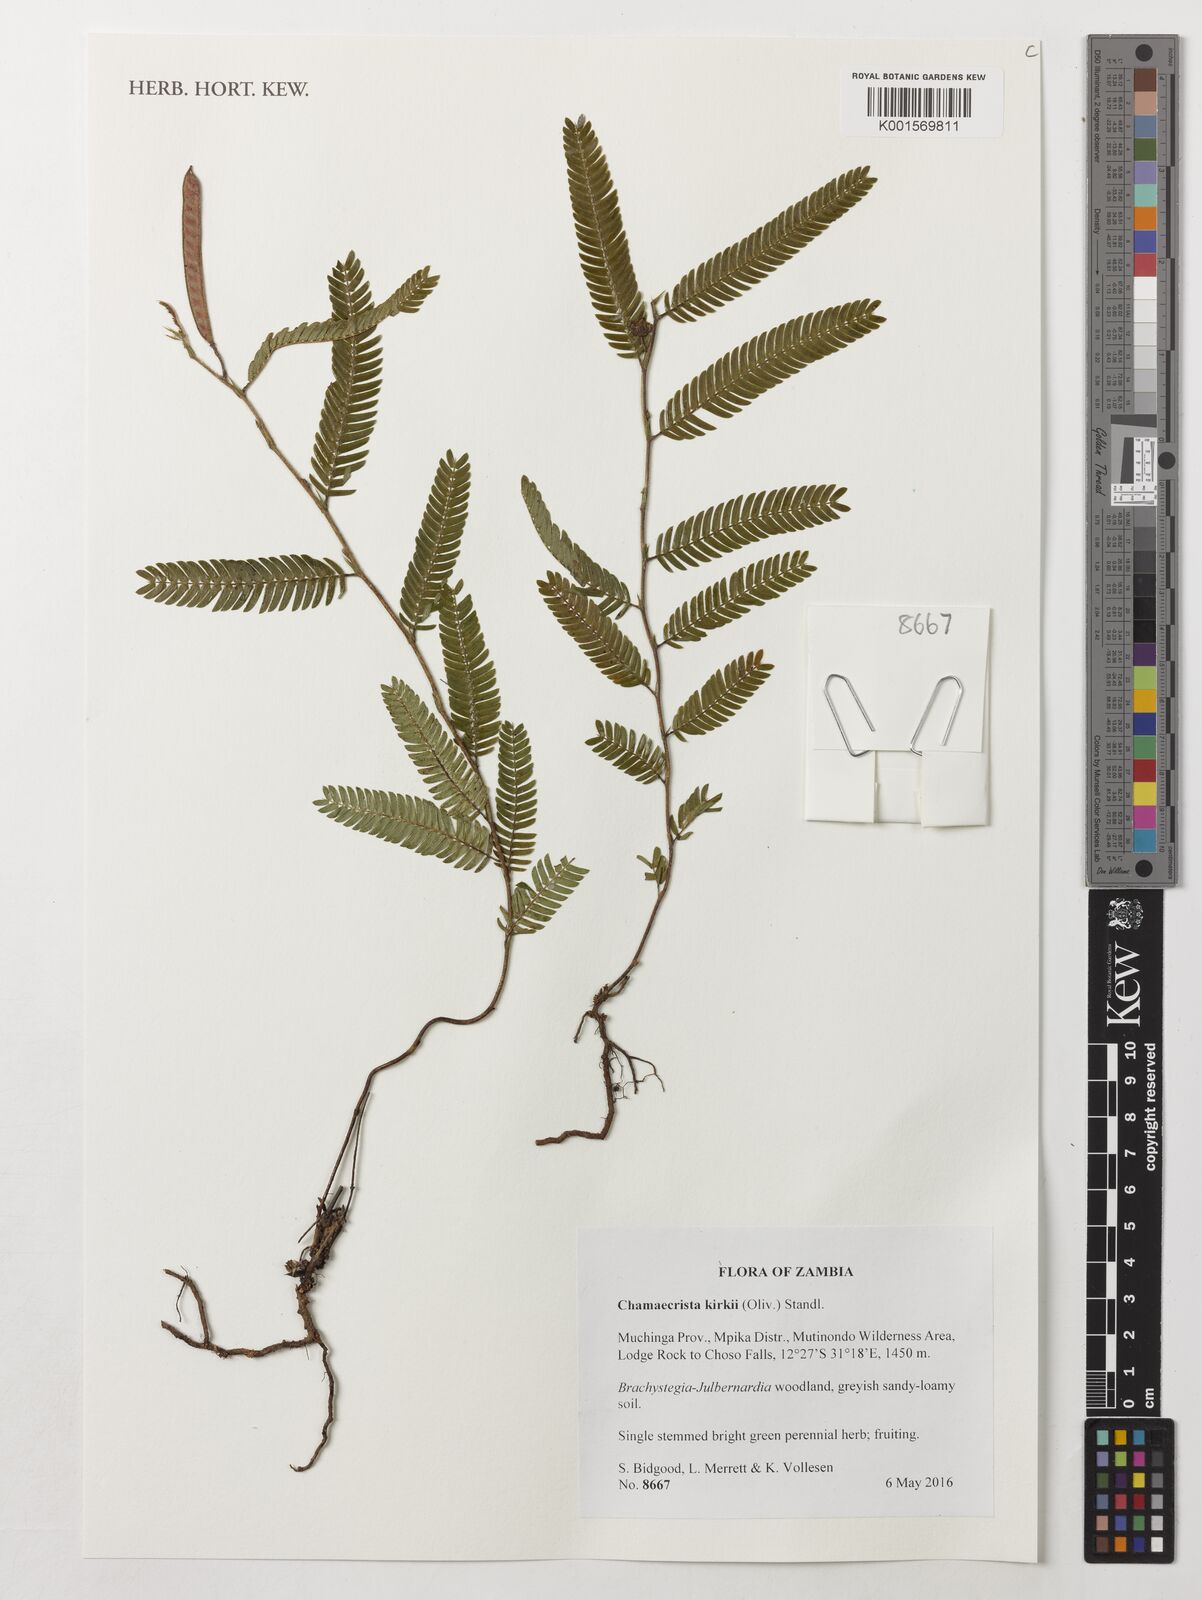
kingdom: Plantae
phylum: Tracheophyta
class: Magnoliopsida
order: Fabales
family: Fabaceae
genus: Chamaecrista
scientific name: Chamaecrista kirkii
